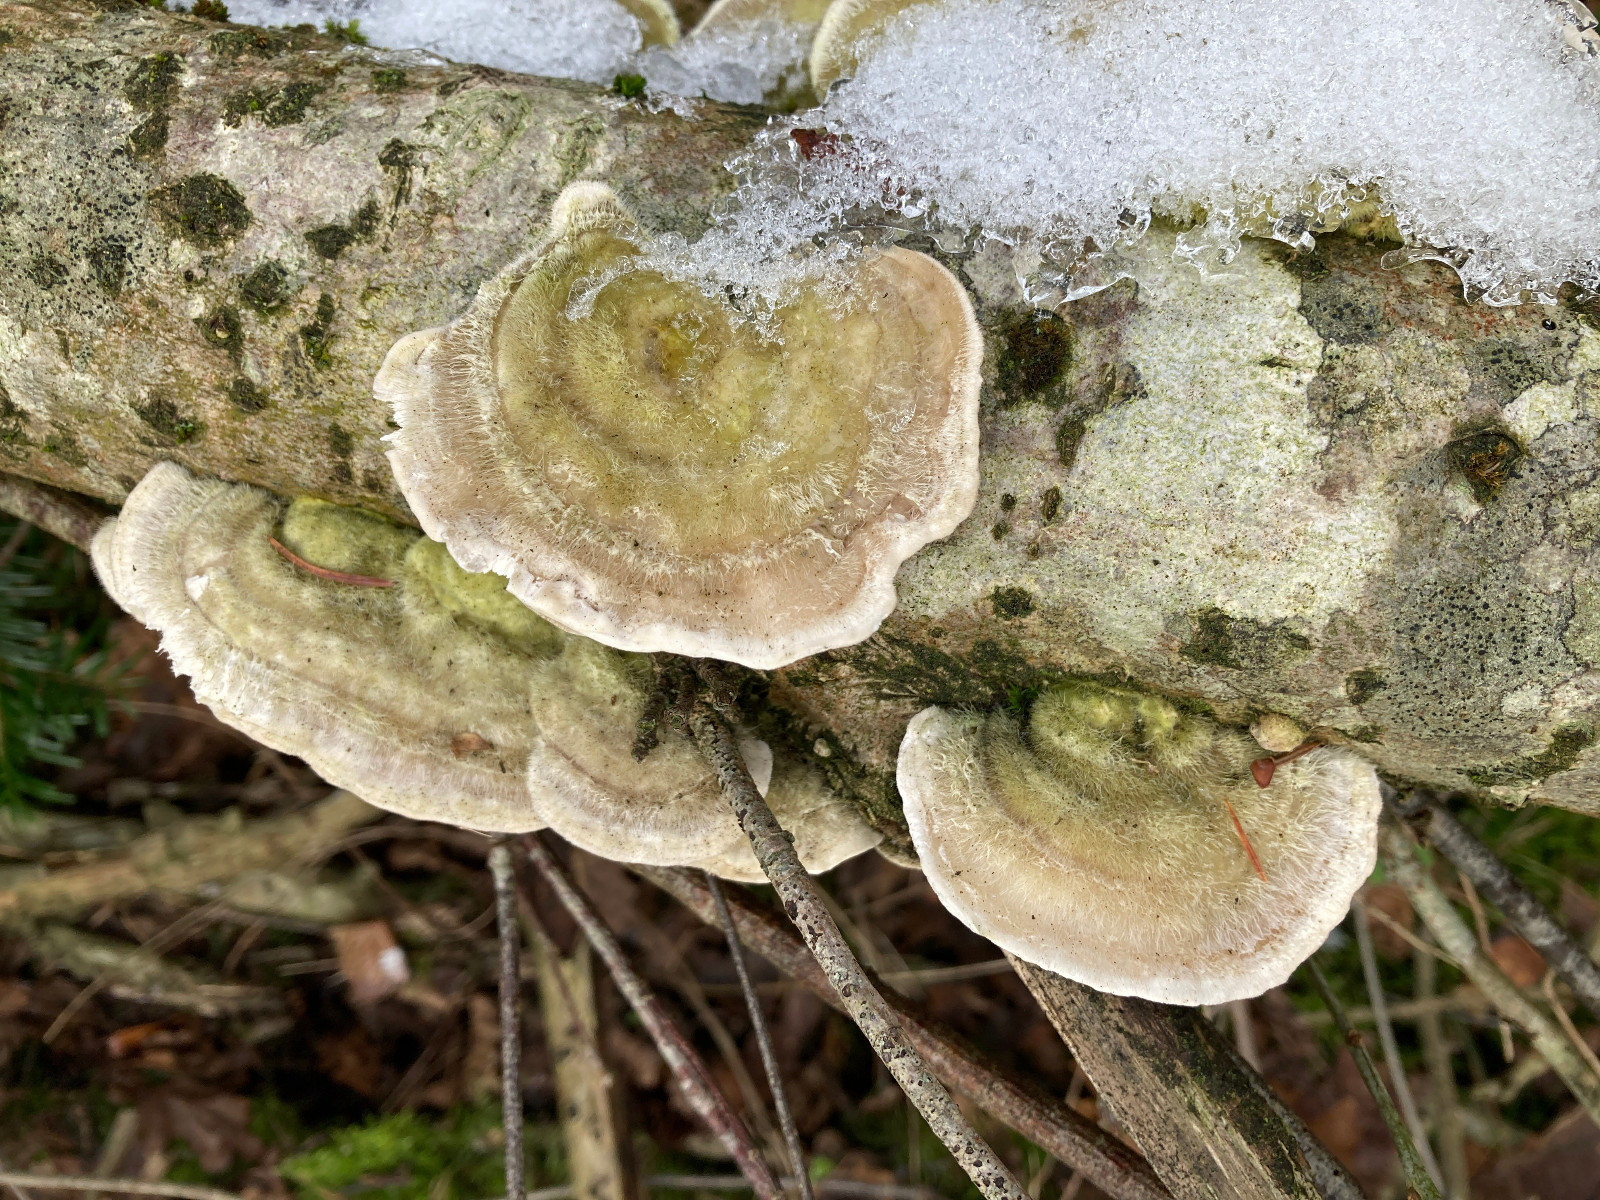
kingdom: Fungi
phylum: Basidiomycota
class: Agaricomycetes
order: Polyporales
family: Polyporaceae
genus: Trametes
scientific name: Trametes hirsuta
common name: håret læderporesvamp
